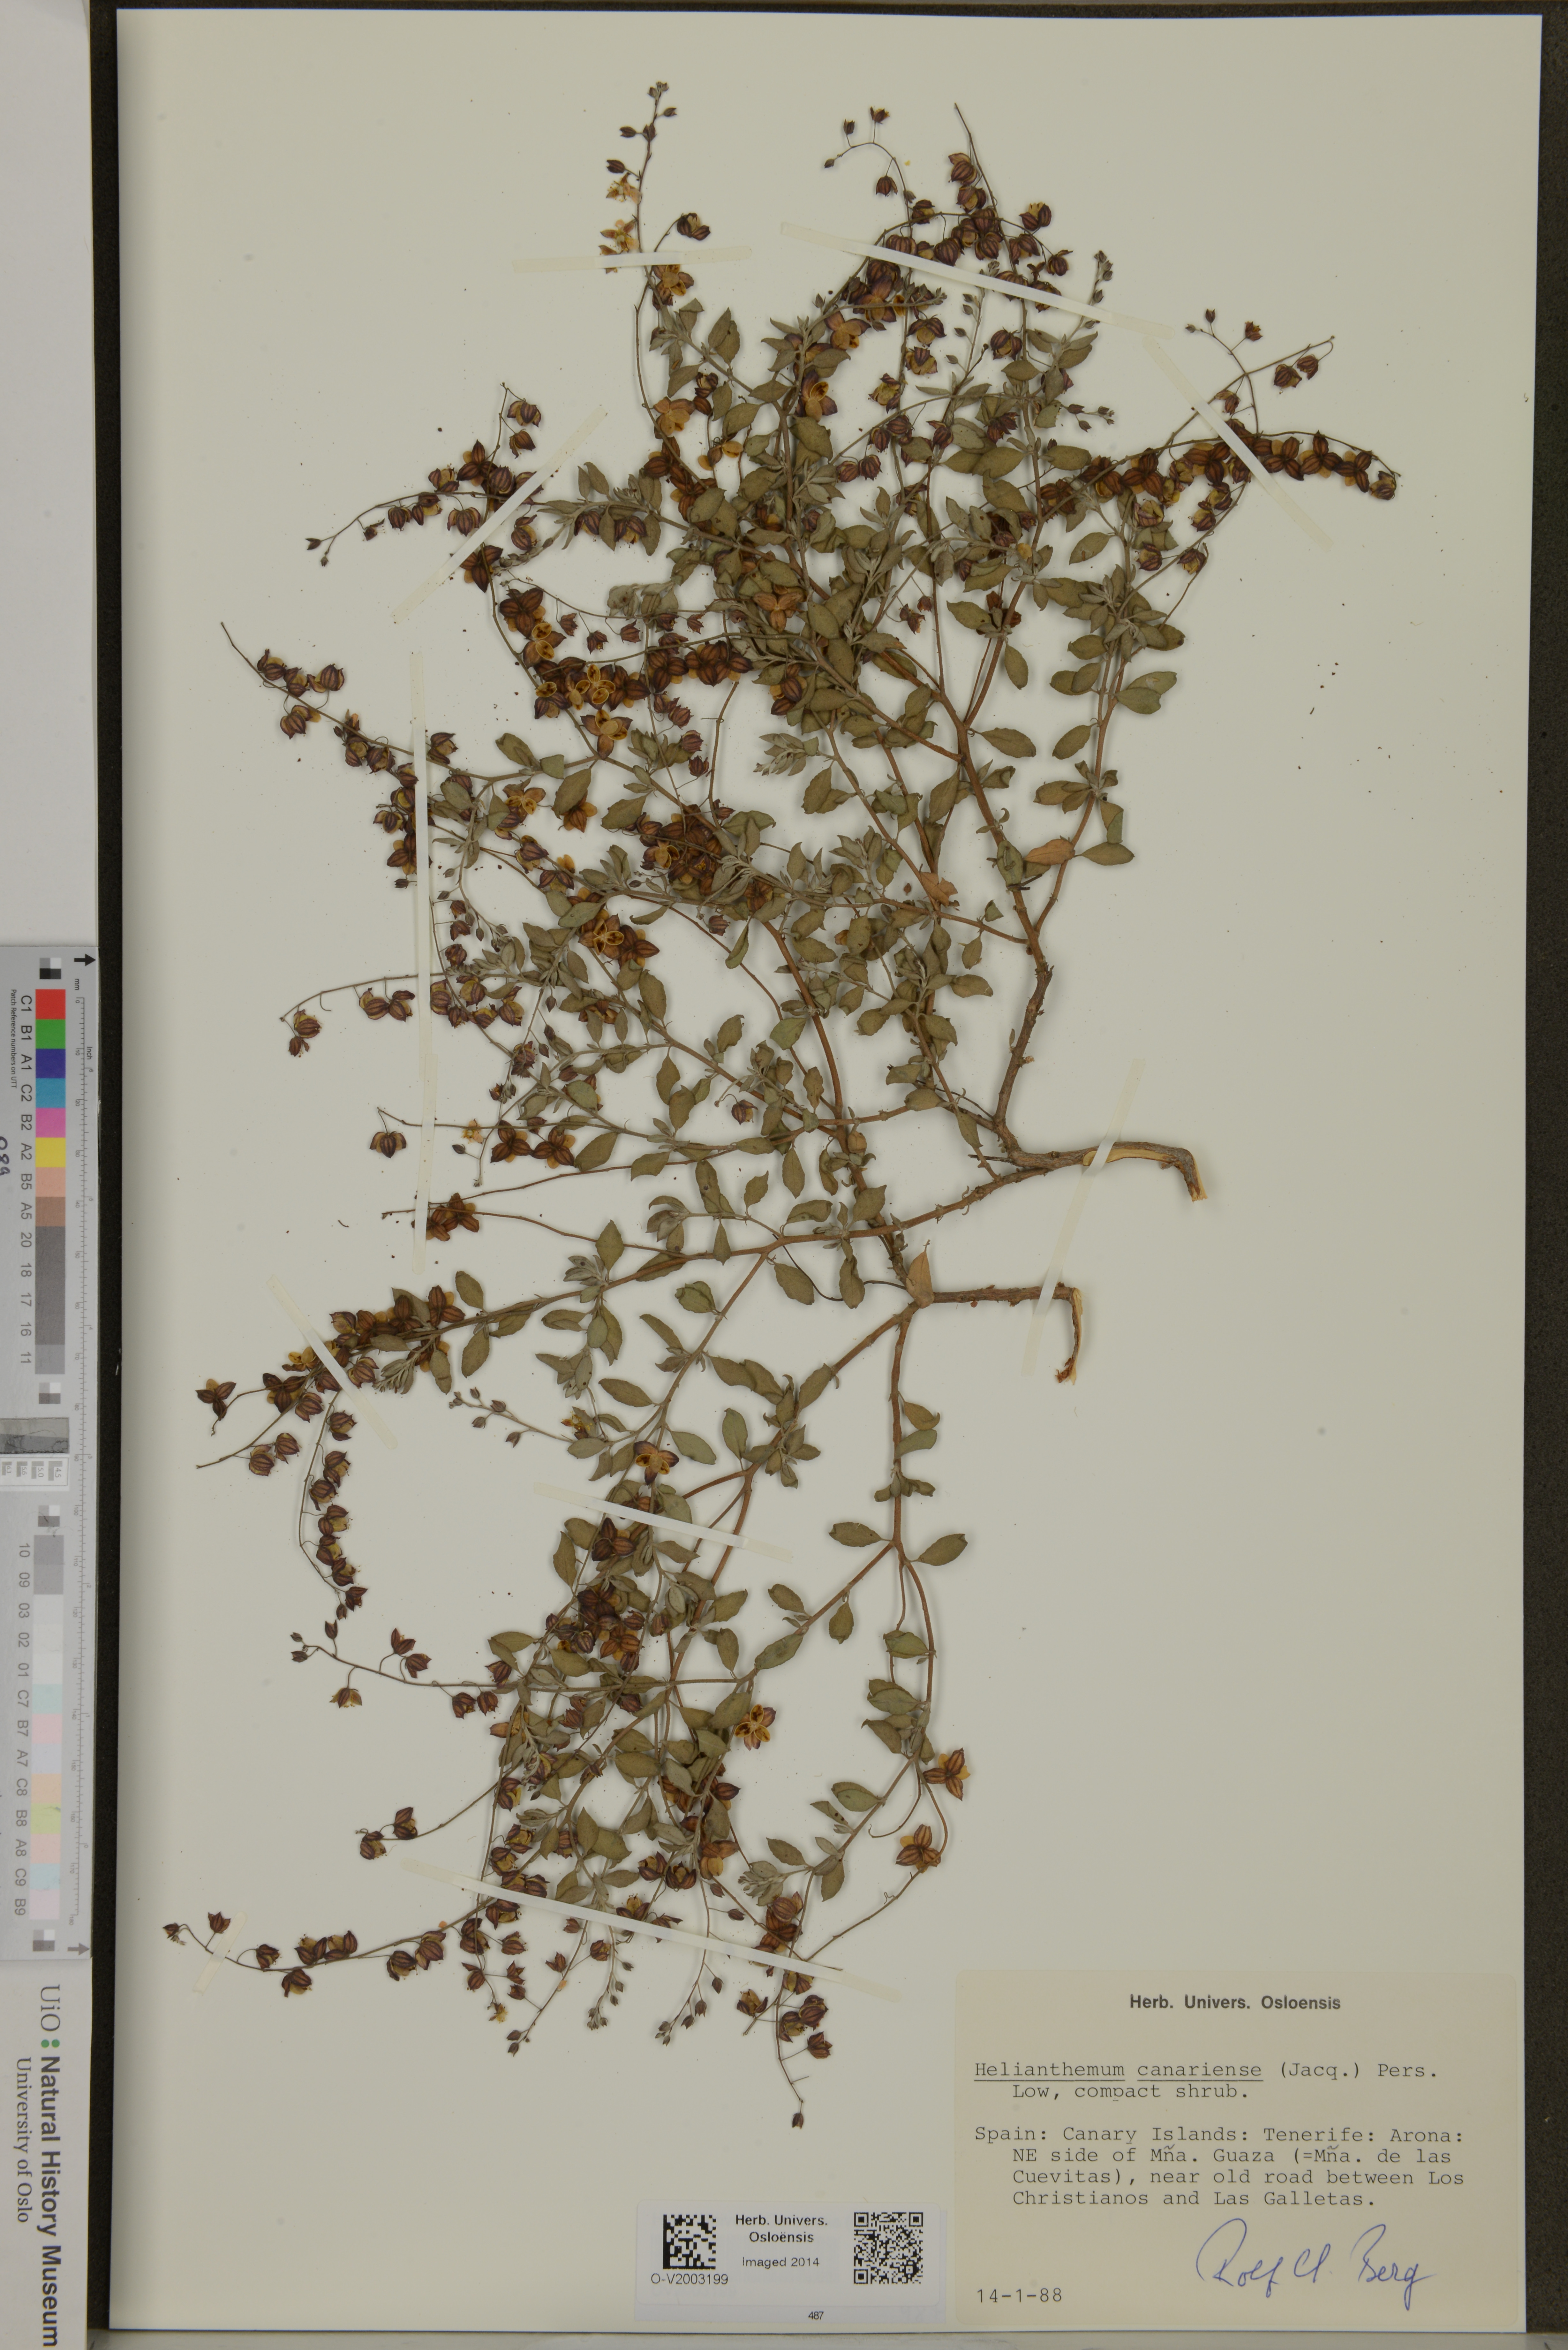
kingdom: Plantae
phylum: Tracheophyta
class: Magnoliopsida
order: Malvales
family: Cistaceae
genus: Helianthemum
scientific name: Helianthemum canariense
